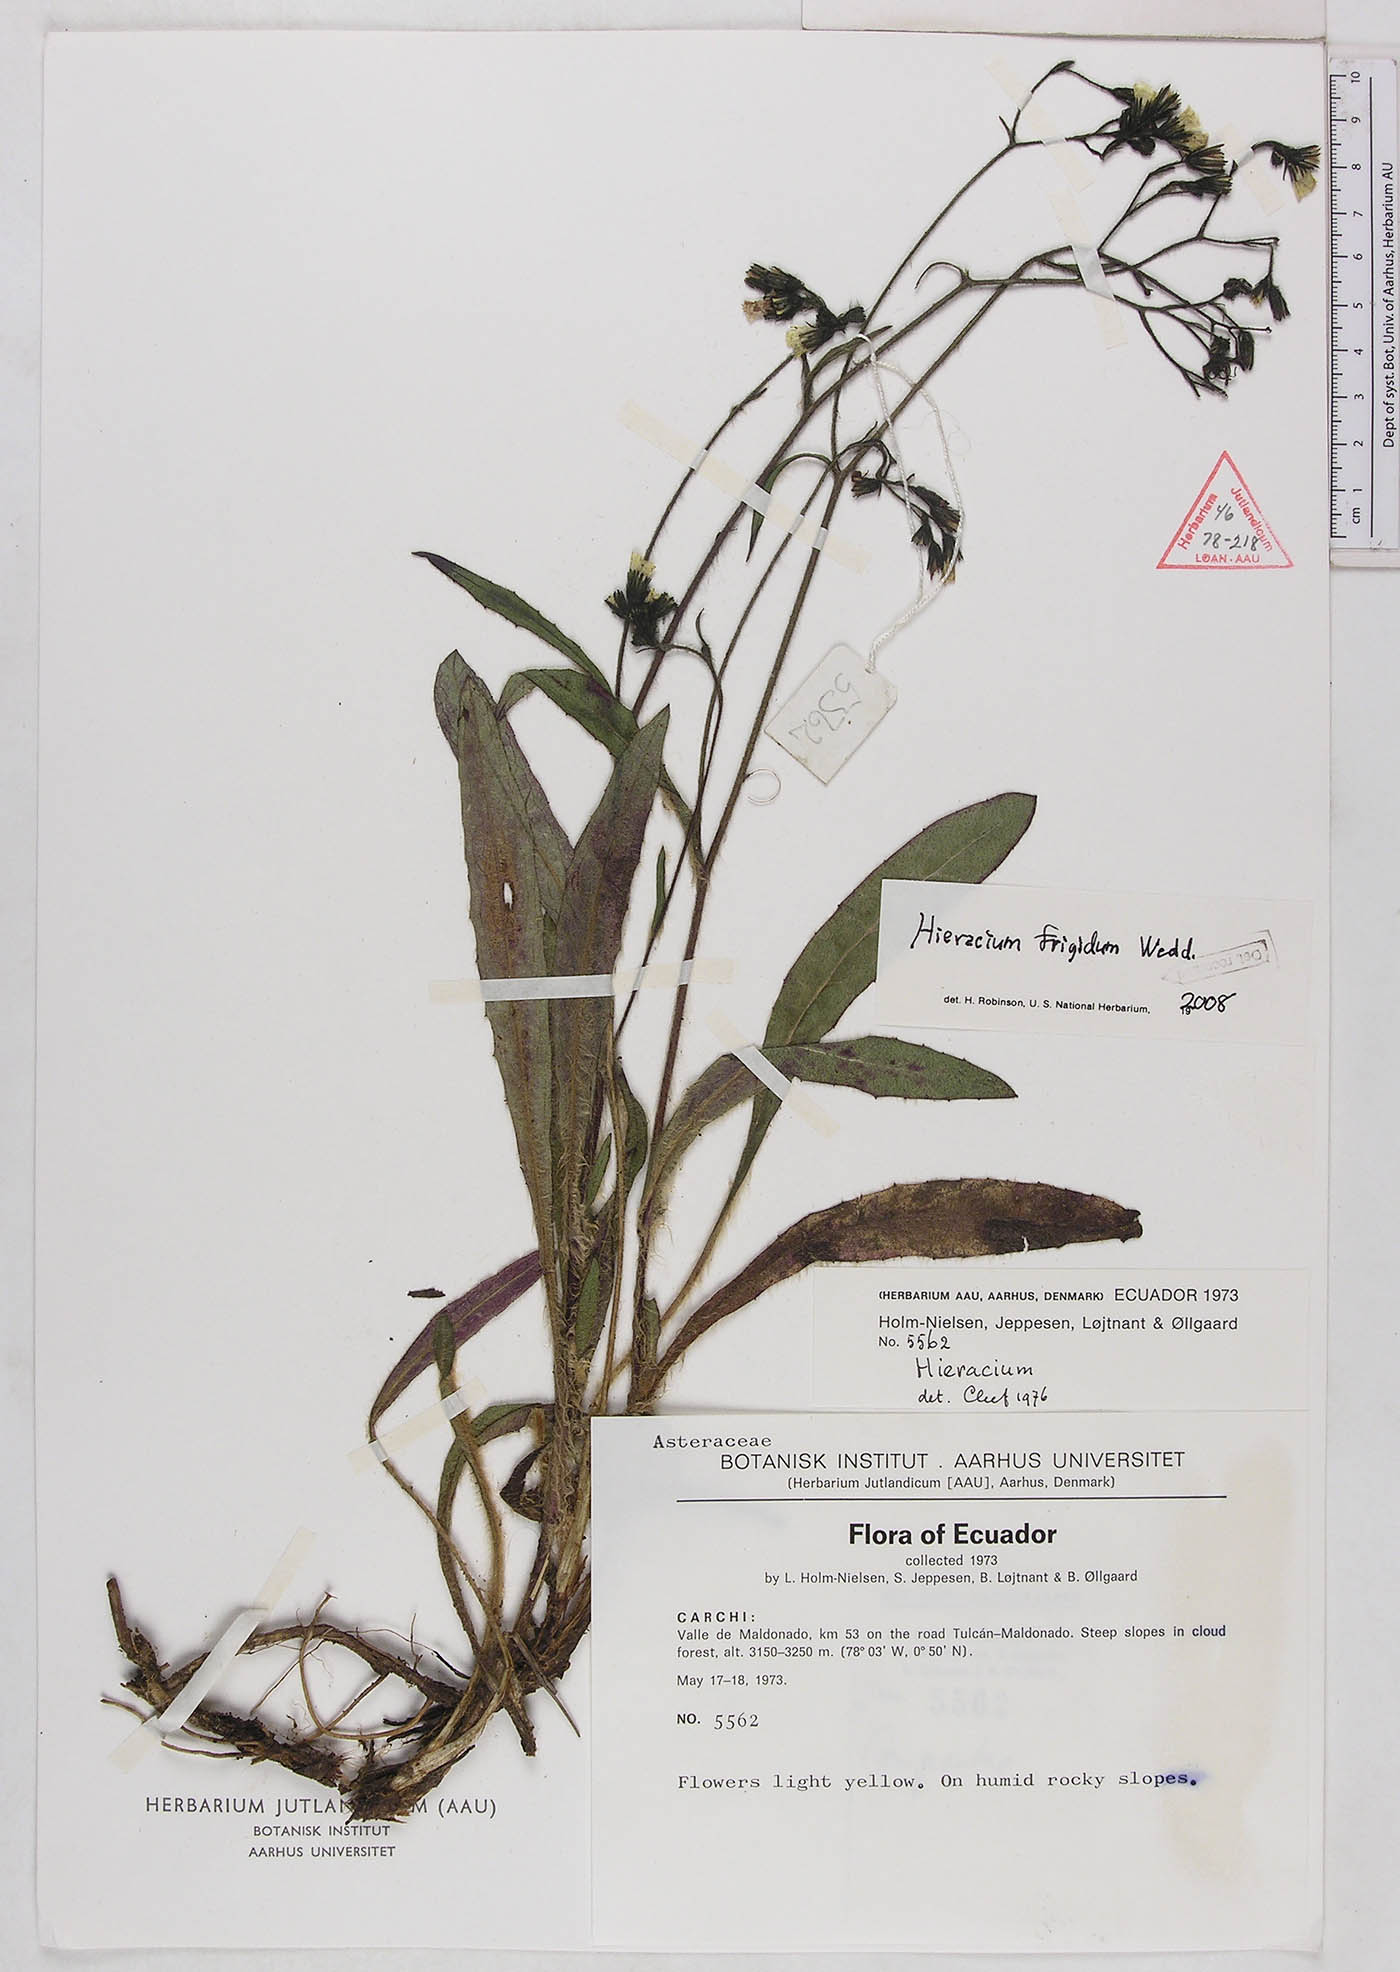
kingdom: Plantae
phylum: Tracheophyta
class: Magnoliopsida
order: Asterales
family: Asteraceae
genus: Hieracium
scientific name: Hieracium jubatum
